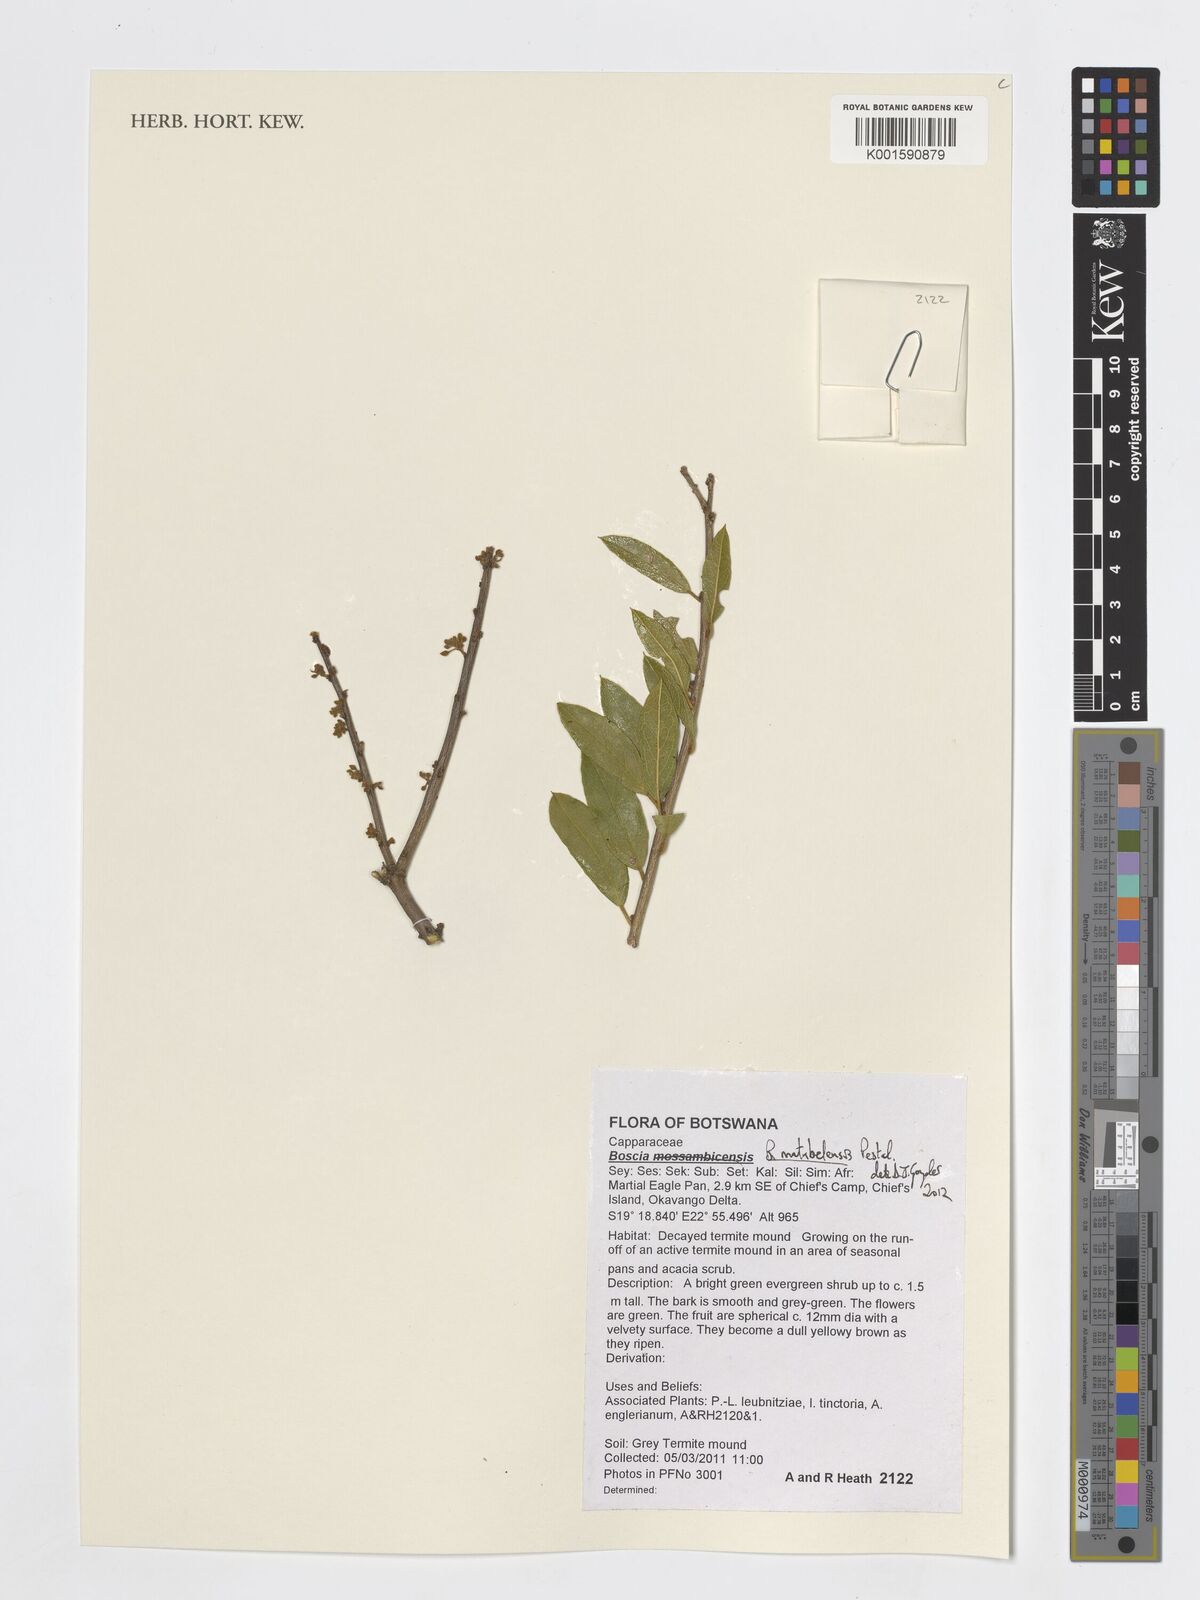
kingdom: Plantae
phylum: Tracheophyta
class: Magnoliopsida
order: Brassicales
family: Capparaceae
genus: Boscia
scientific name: Boscia matabelensis
